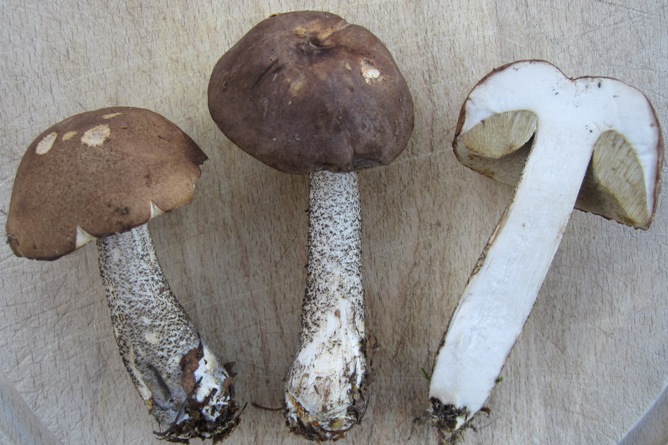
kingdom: Fungi
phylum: Basidiomycota
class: Agaricomycetes
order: Boletales
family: Boletaceae
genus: Leccinum
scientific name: Leccinum scabrum
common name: brun skælrørhat
